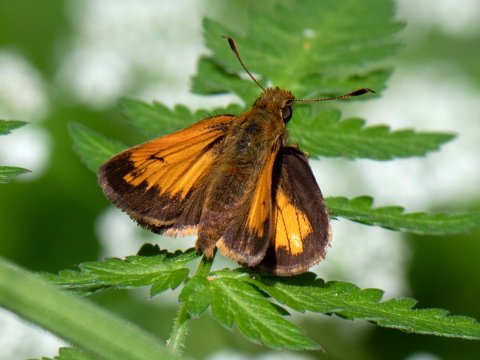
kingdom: Animalia
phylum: Arthropoda
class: Insecta
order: Lepidoptera
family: Hesperiidae
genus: Lon
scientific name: Lon hobomok
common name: Hobomok Skipper
